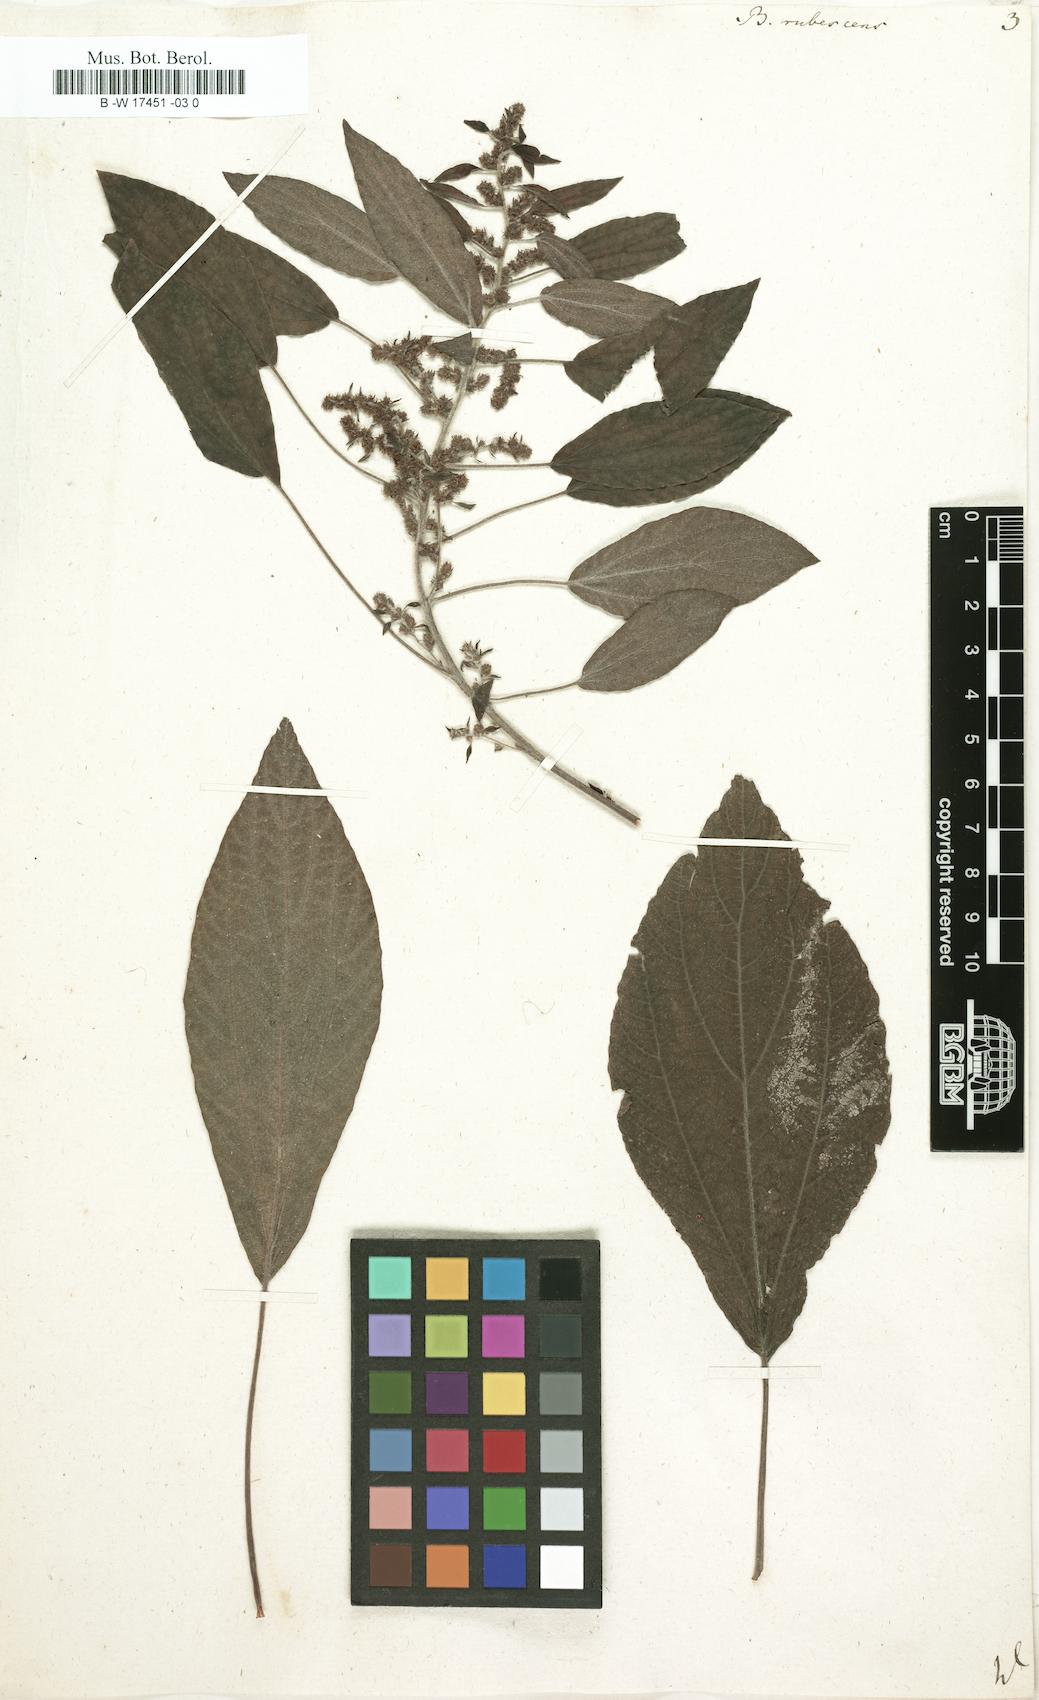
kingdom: Plantae
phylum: Tracheophyta
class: Magnoliopsida
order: Rosales
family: Urticaceae
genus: Gesnouinia
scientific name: Gesnouinia arborea
